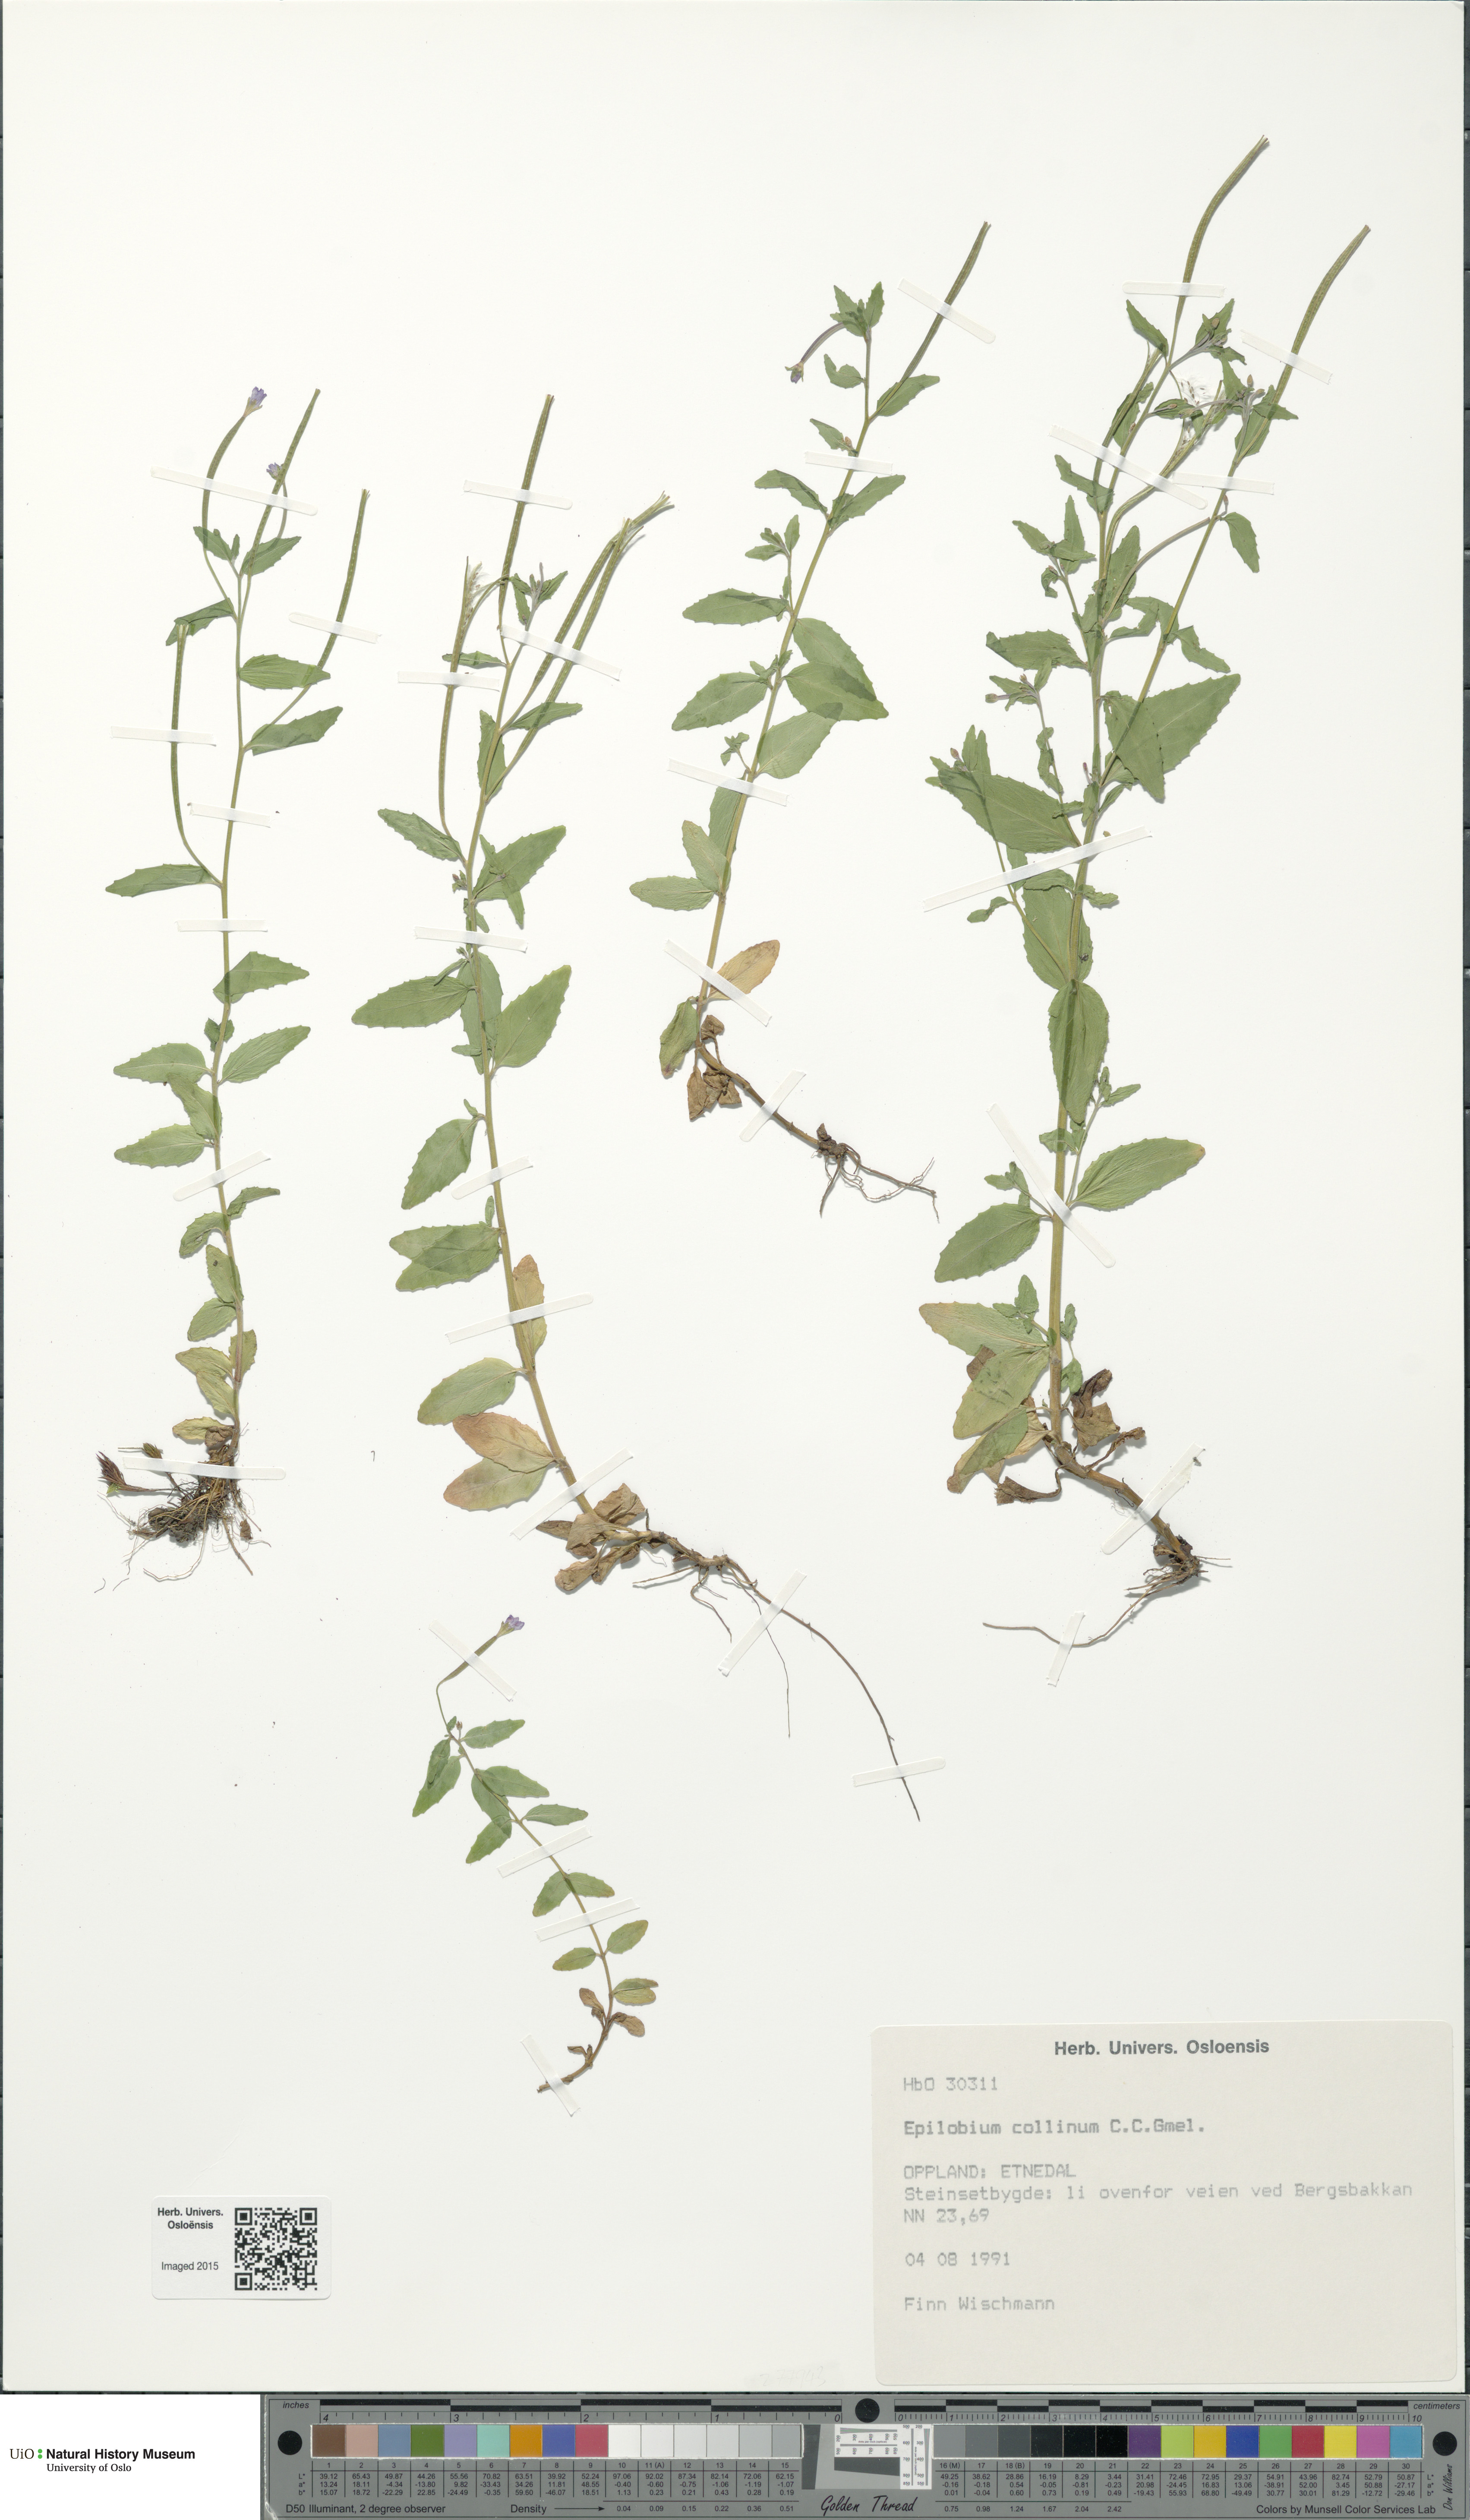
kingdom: Plantae
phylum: Tracheophyta
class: Magnoliopsida
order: Myrtales
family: Onagraceae
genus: Epilobium
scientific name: Epilobium collinum
